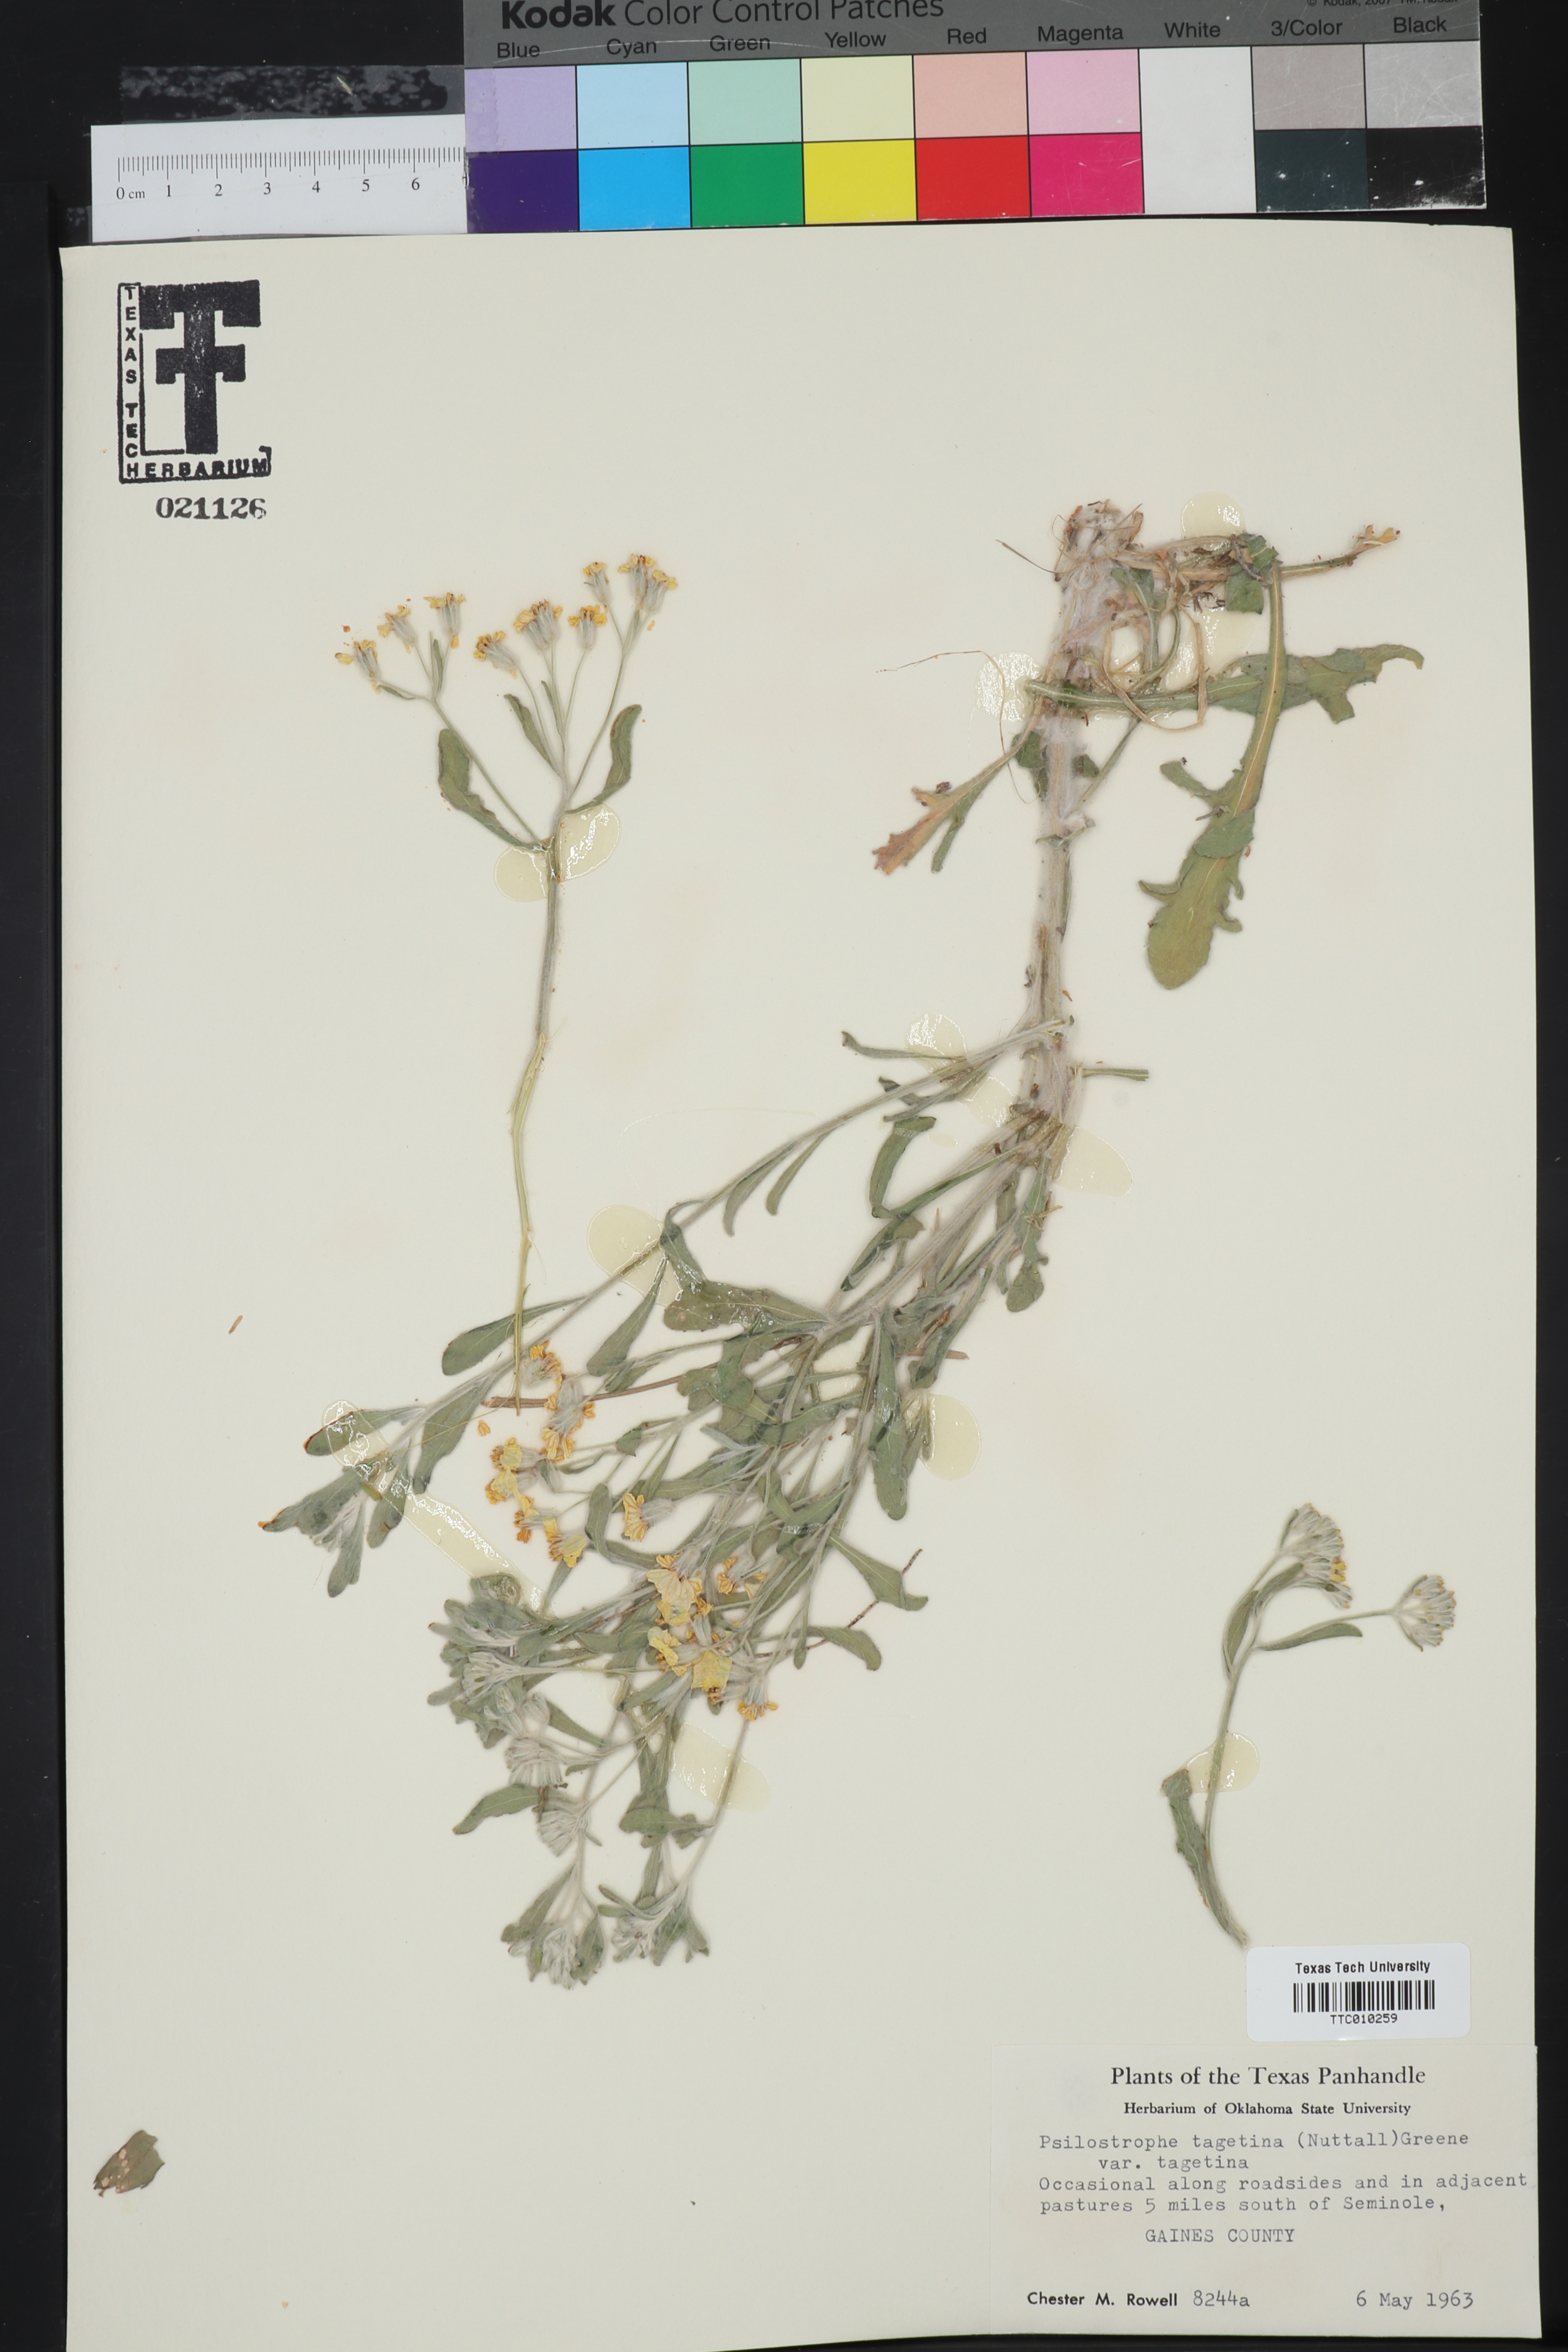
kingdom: Plantae
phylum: Tracheophyta
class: Magnoliopsida
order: Asterales
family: Asteraceae
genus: Psilostrophe
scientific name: Psilostrophe tagetina
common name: Marigold paper-flower
